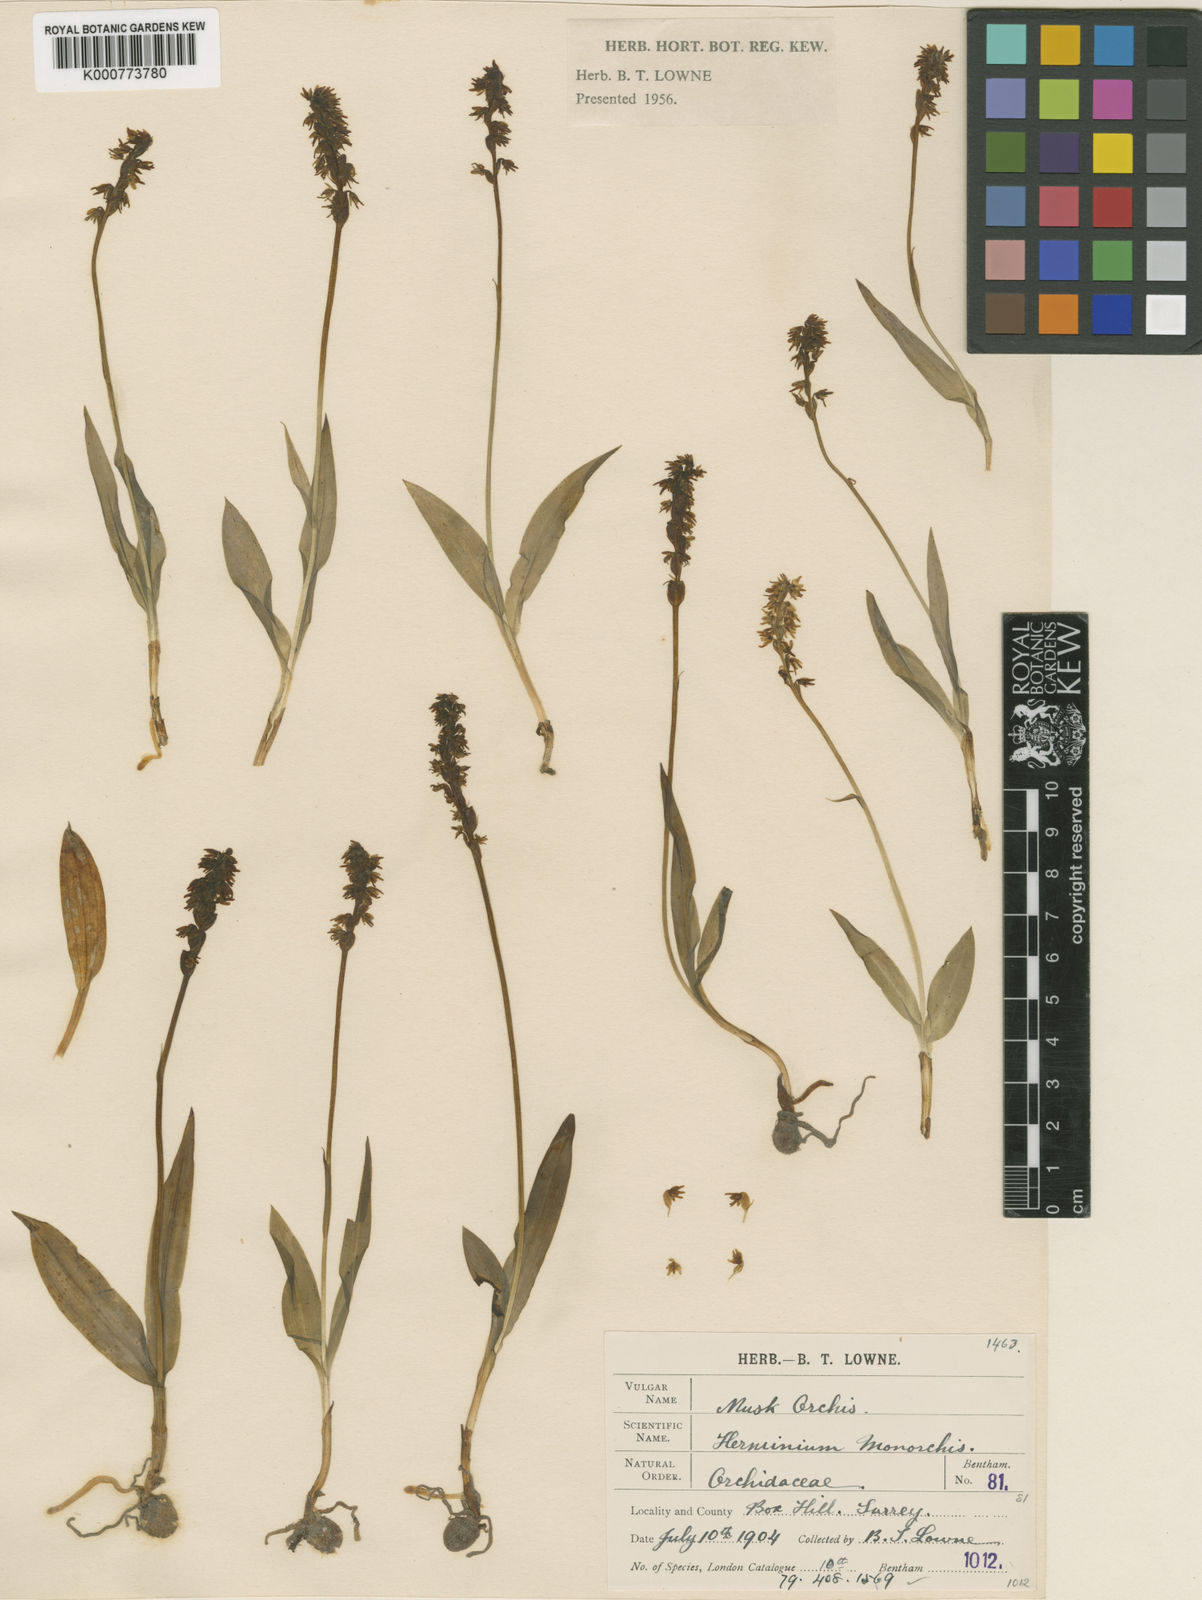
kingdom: Plantae
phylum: Tracheophyta
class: Liliopsida
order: Asparagales
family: Orchidaceae
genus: Herminium
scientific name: Herminium monorchis
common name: Musk orchid
